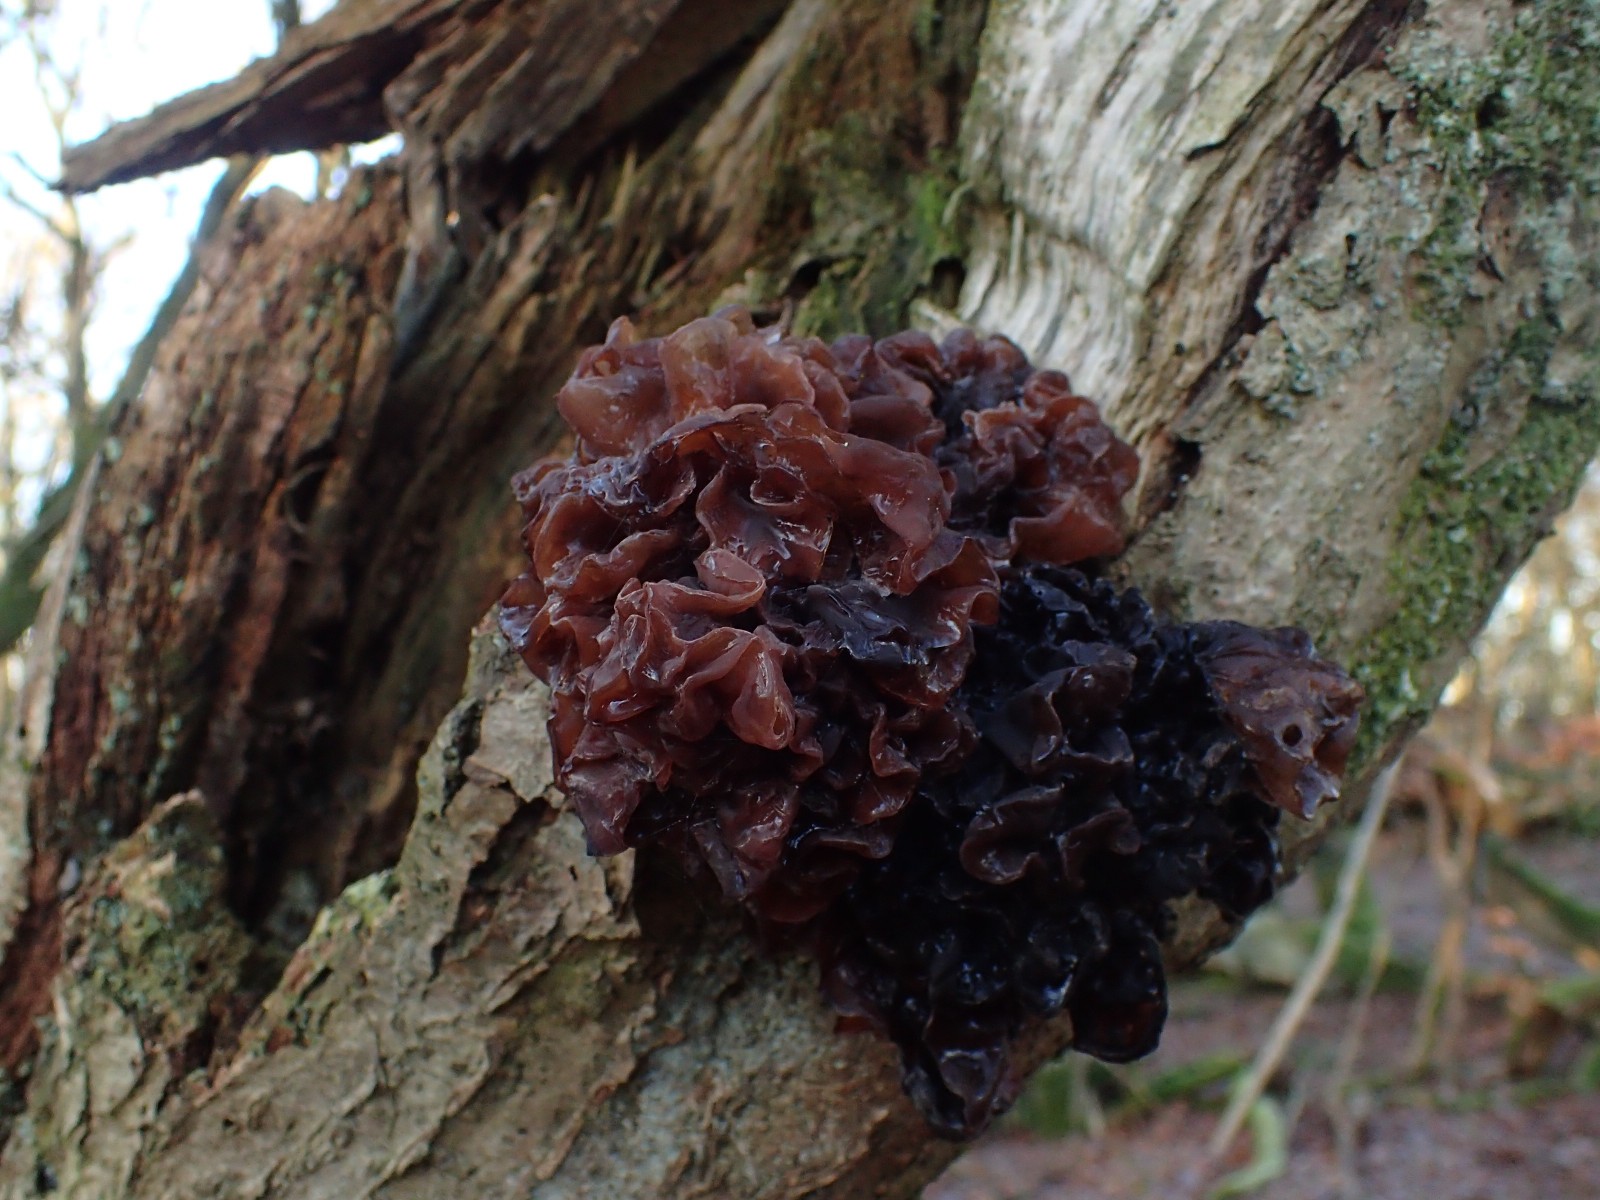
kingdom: Fungi
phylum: Basidiomycota
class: Tremellomycetes
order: Tremellales
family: Tremellaceae
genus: Phaeotremella
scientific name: Phaeotremella frondosa
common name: kæmpe-bævresvamp
